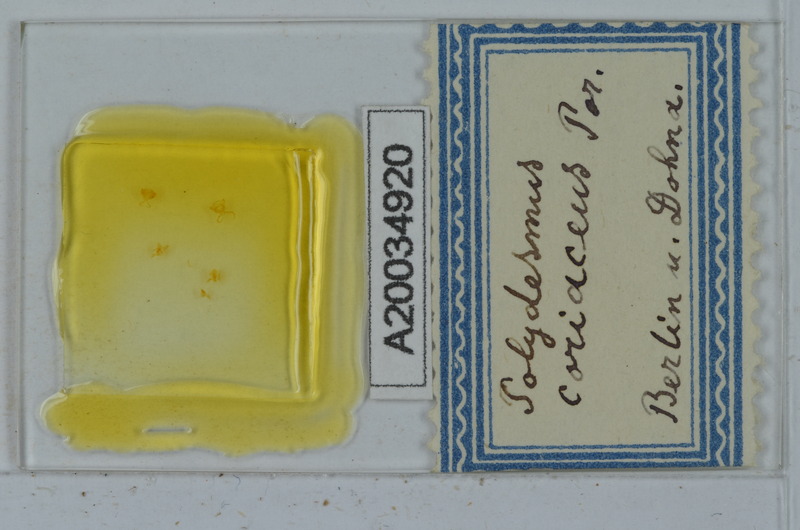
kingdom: Animalia
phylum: Arthropoda
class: Diplopoda
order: Polydesmida
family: Polydesmidae
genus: Polydesmus
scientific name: Polydesmus coriaceus
